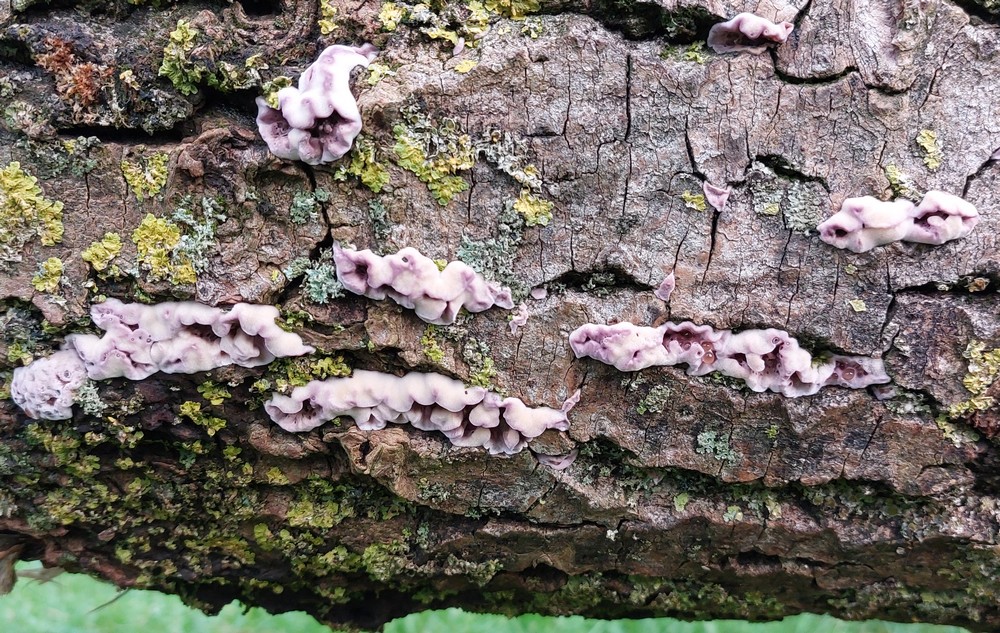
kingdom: Fungi
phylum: Basidiomycota
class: Agaricomycetes
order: Agaricales
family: Cyphellaceae
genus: Chondrostereum
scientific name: Chondrostereum purpureum
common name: purpurlædersvamp
